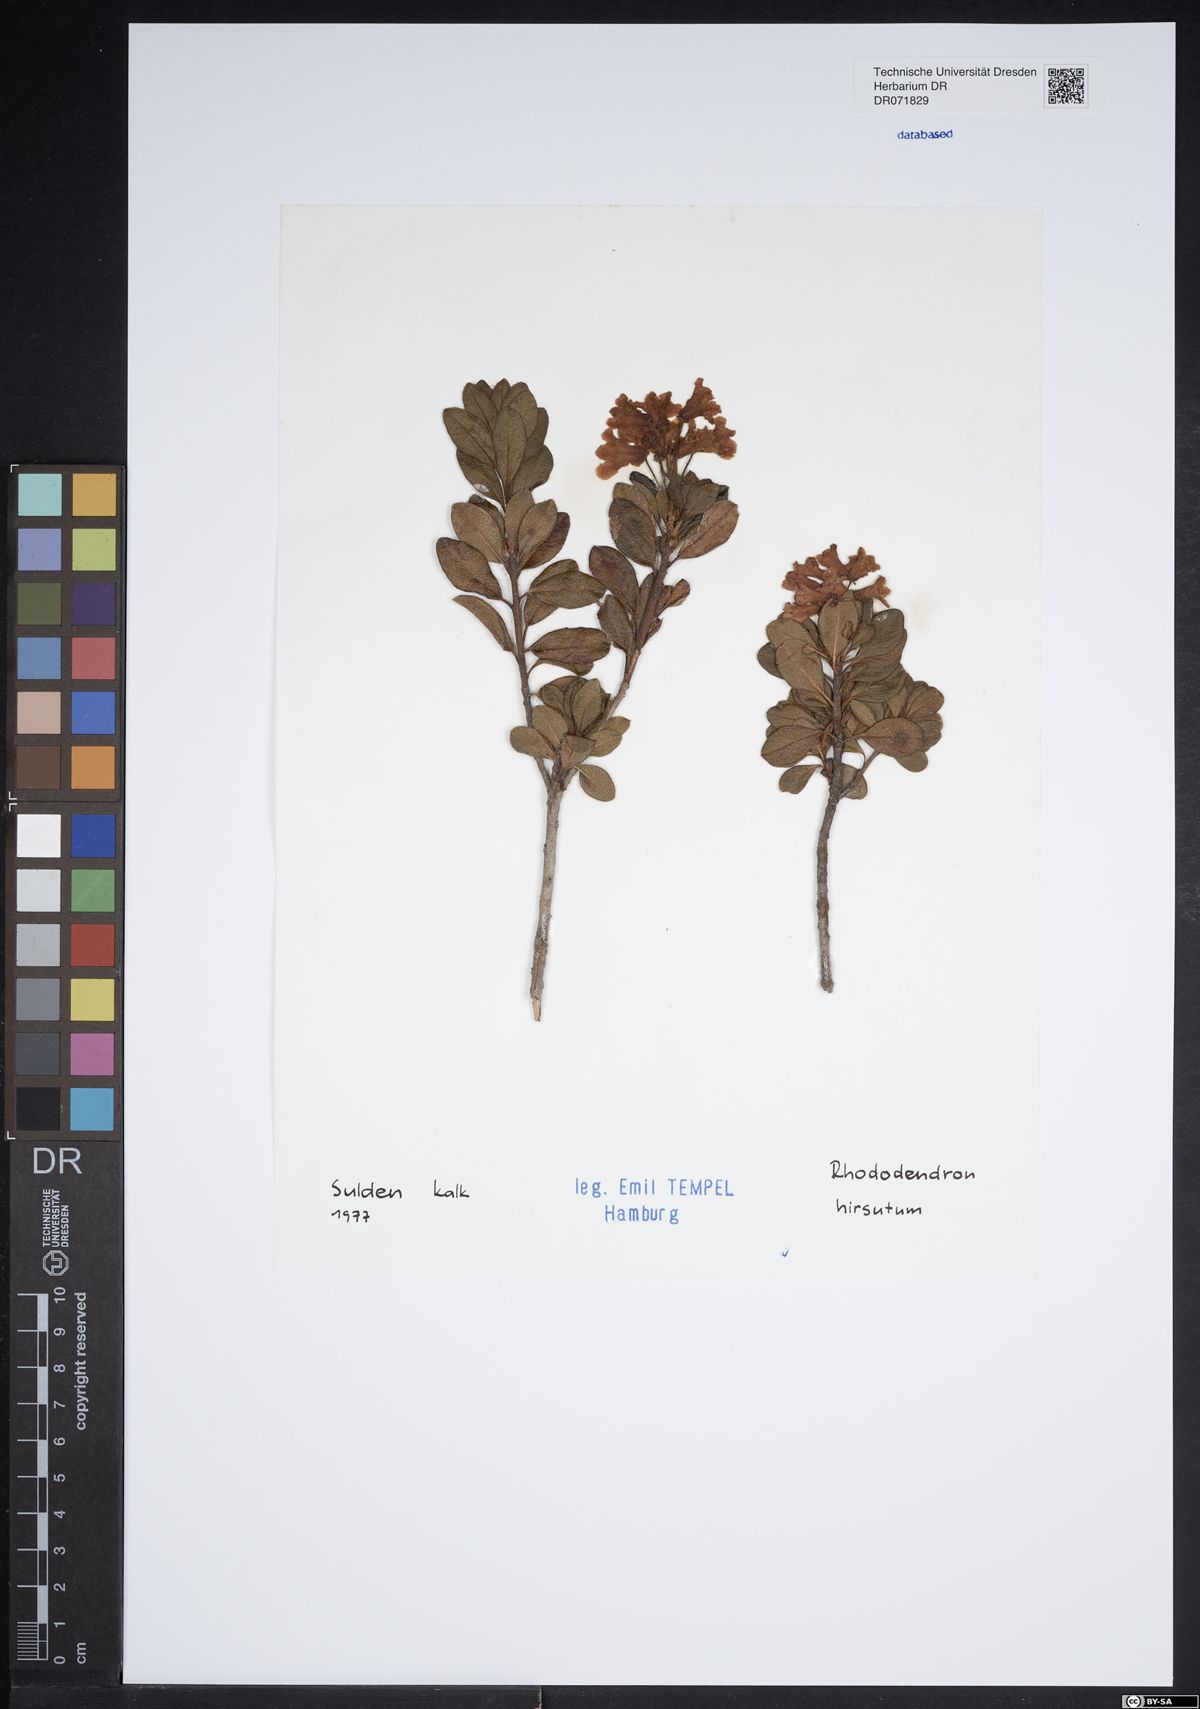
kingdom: Plantae
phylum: Tracheophyta
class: Magnoliopsida
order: Ericales
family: Ericaceae
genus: Rhododendron
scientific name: Rhododendron hirsutum
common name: Hairy alpenrose
